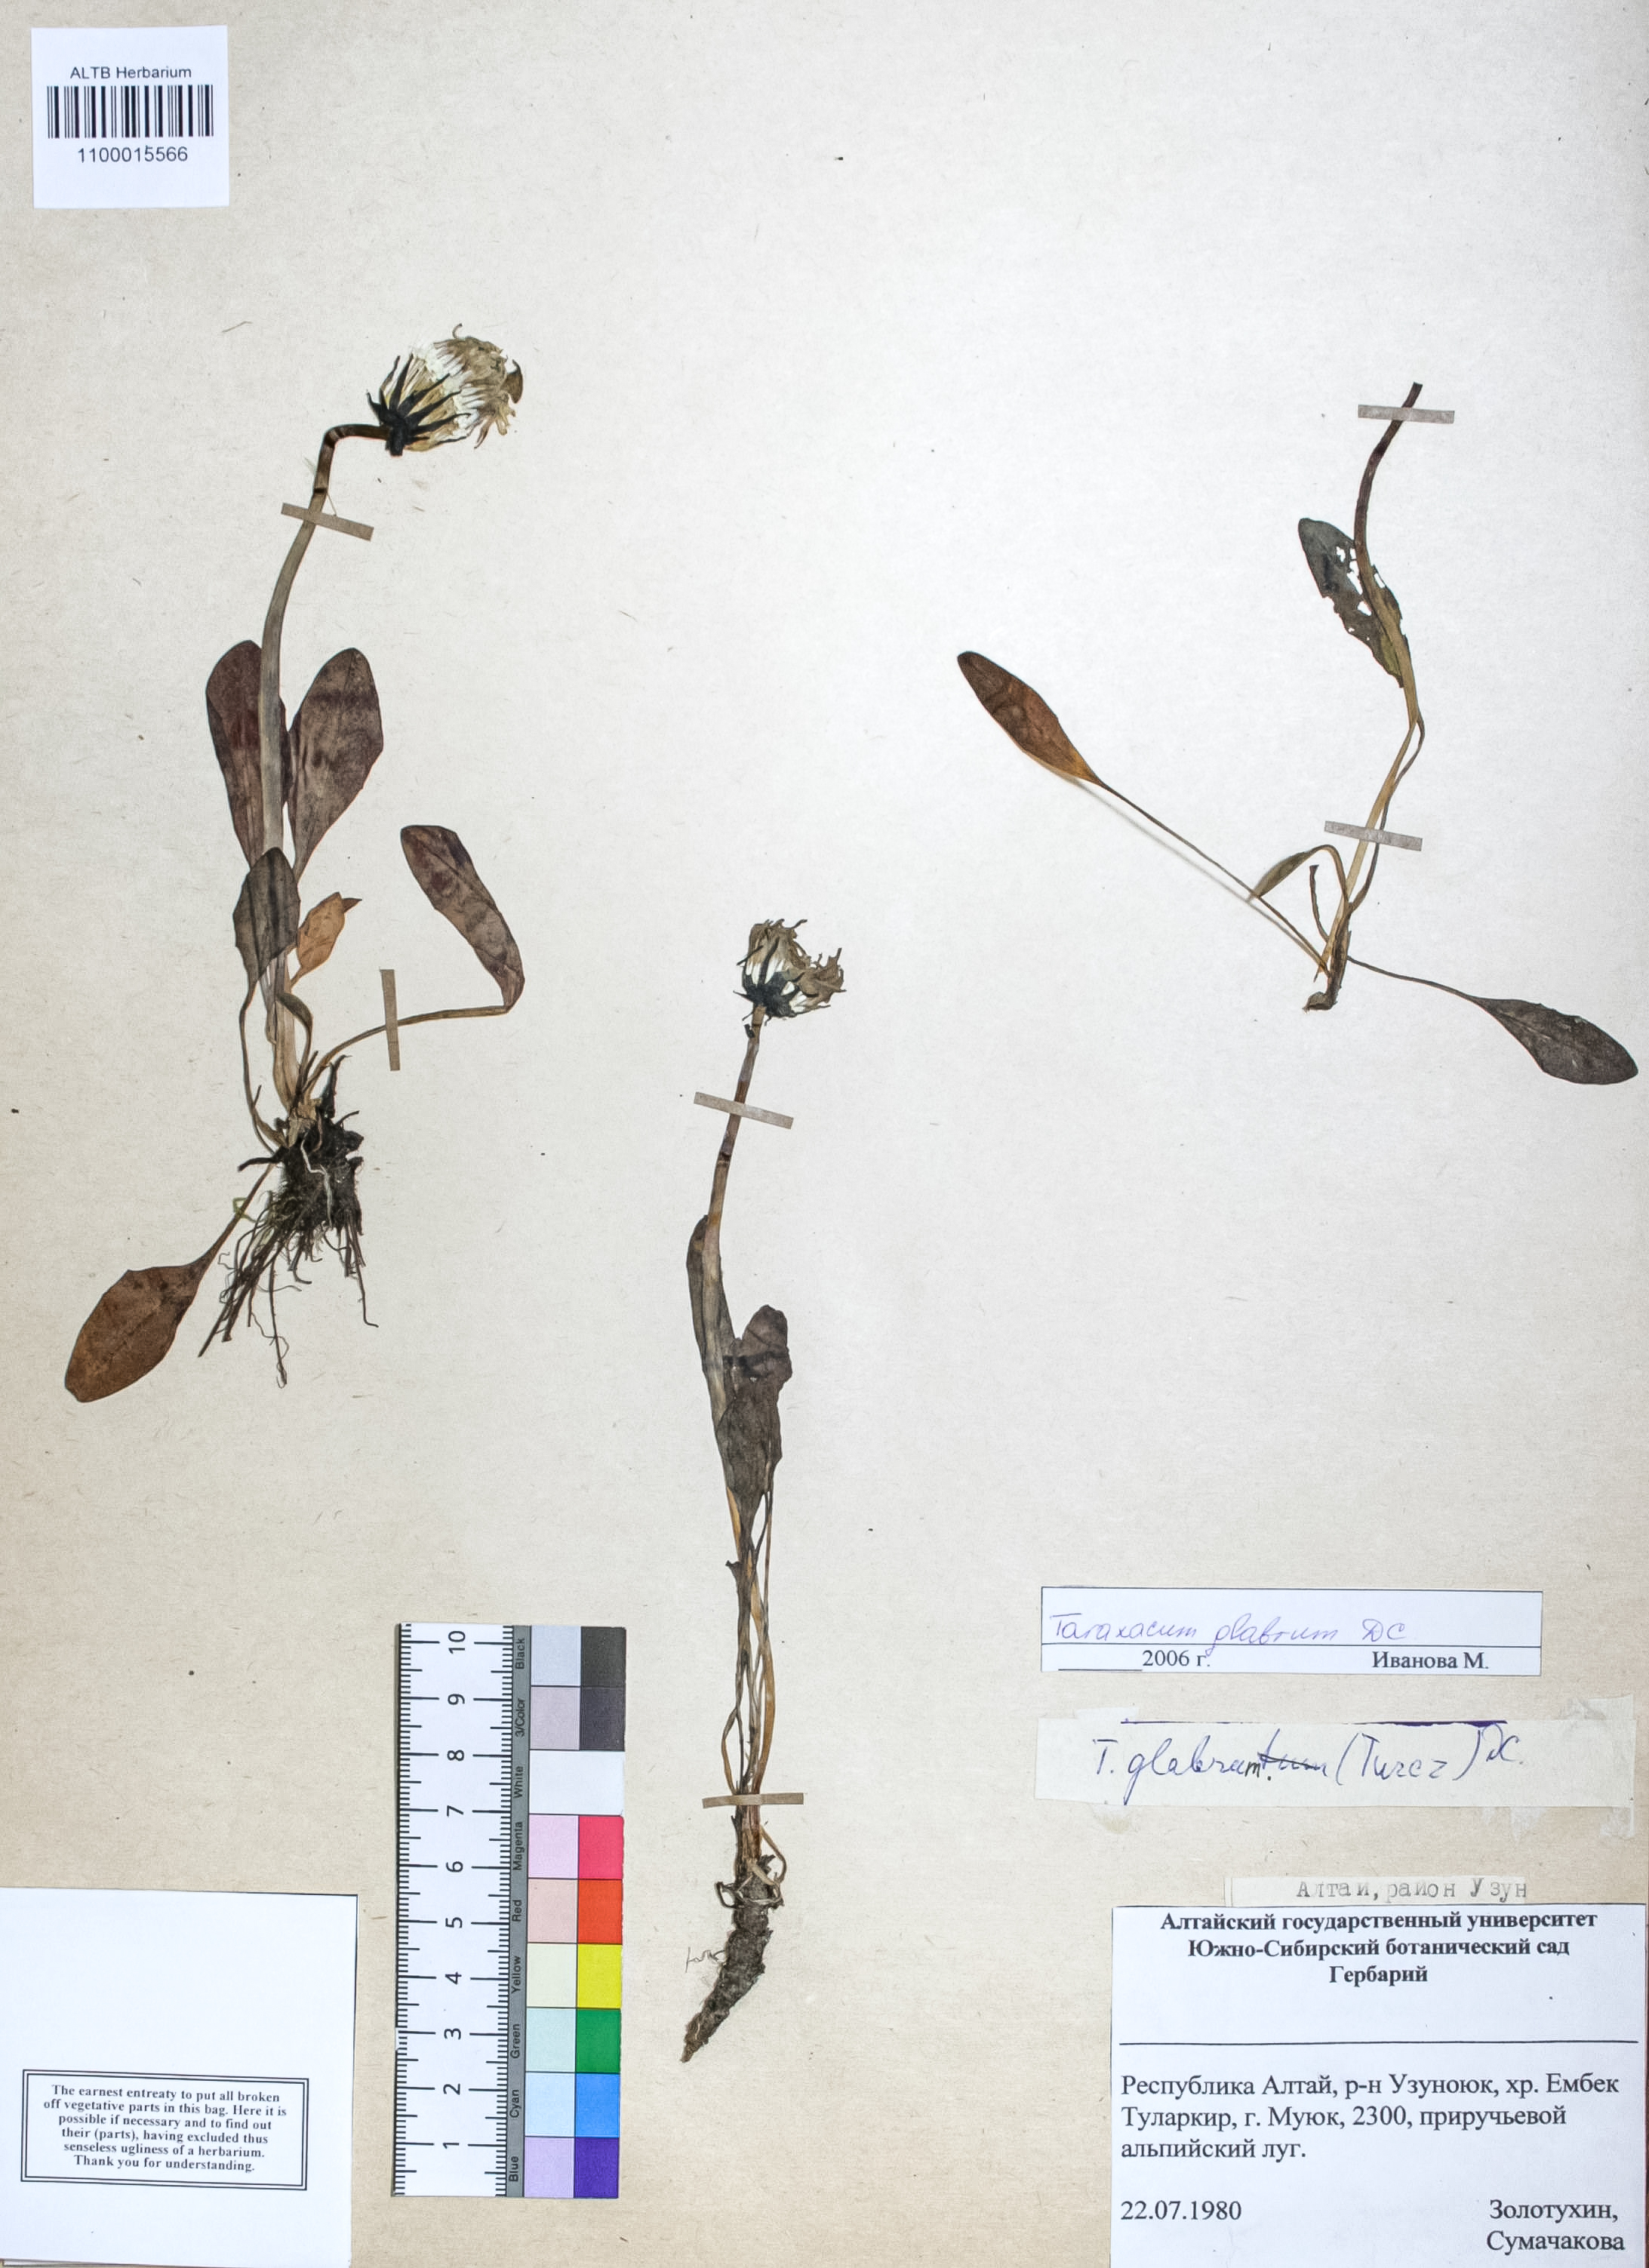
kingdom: Plantae
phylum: Tracheophyta
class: Magnoliopsida
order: Asterales
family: Asteraceae
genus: Taraxacum
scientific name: Taraxacum glabrum
